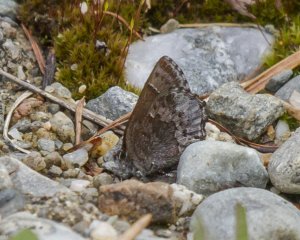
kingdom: Animalia
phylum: Arthropoda
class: Insecta
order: Lepidoptera
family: Lycaenidae
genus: Callophrys
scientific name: Callophrys polios
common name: Hoary Elfin
